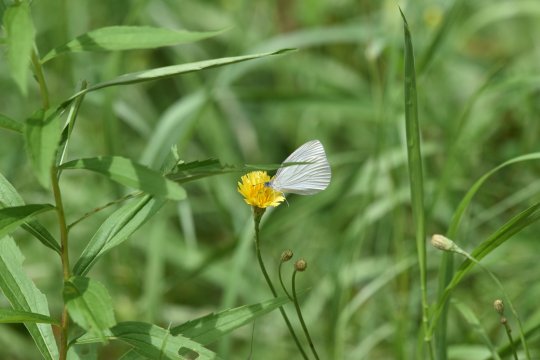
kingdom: Animalia
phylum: Arthropoda
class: Insecta
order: Lepidoptera
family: Pieridae
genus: Pieris
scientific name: Pieris oleracea
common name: Mustard White
